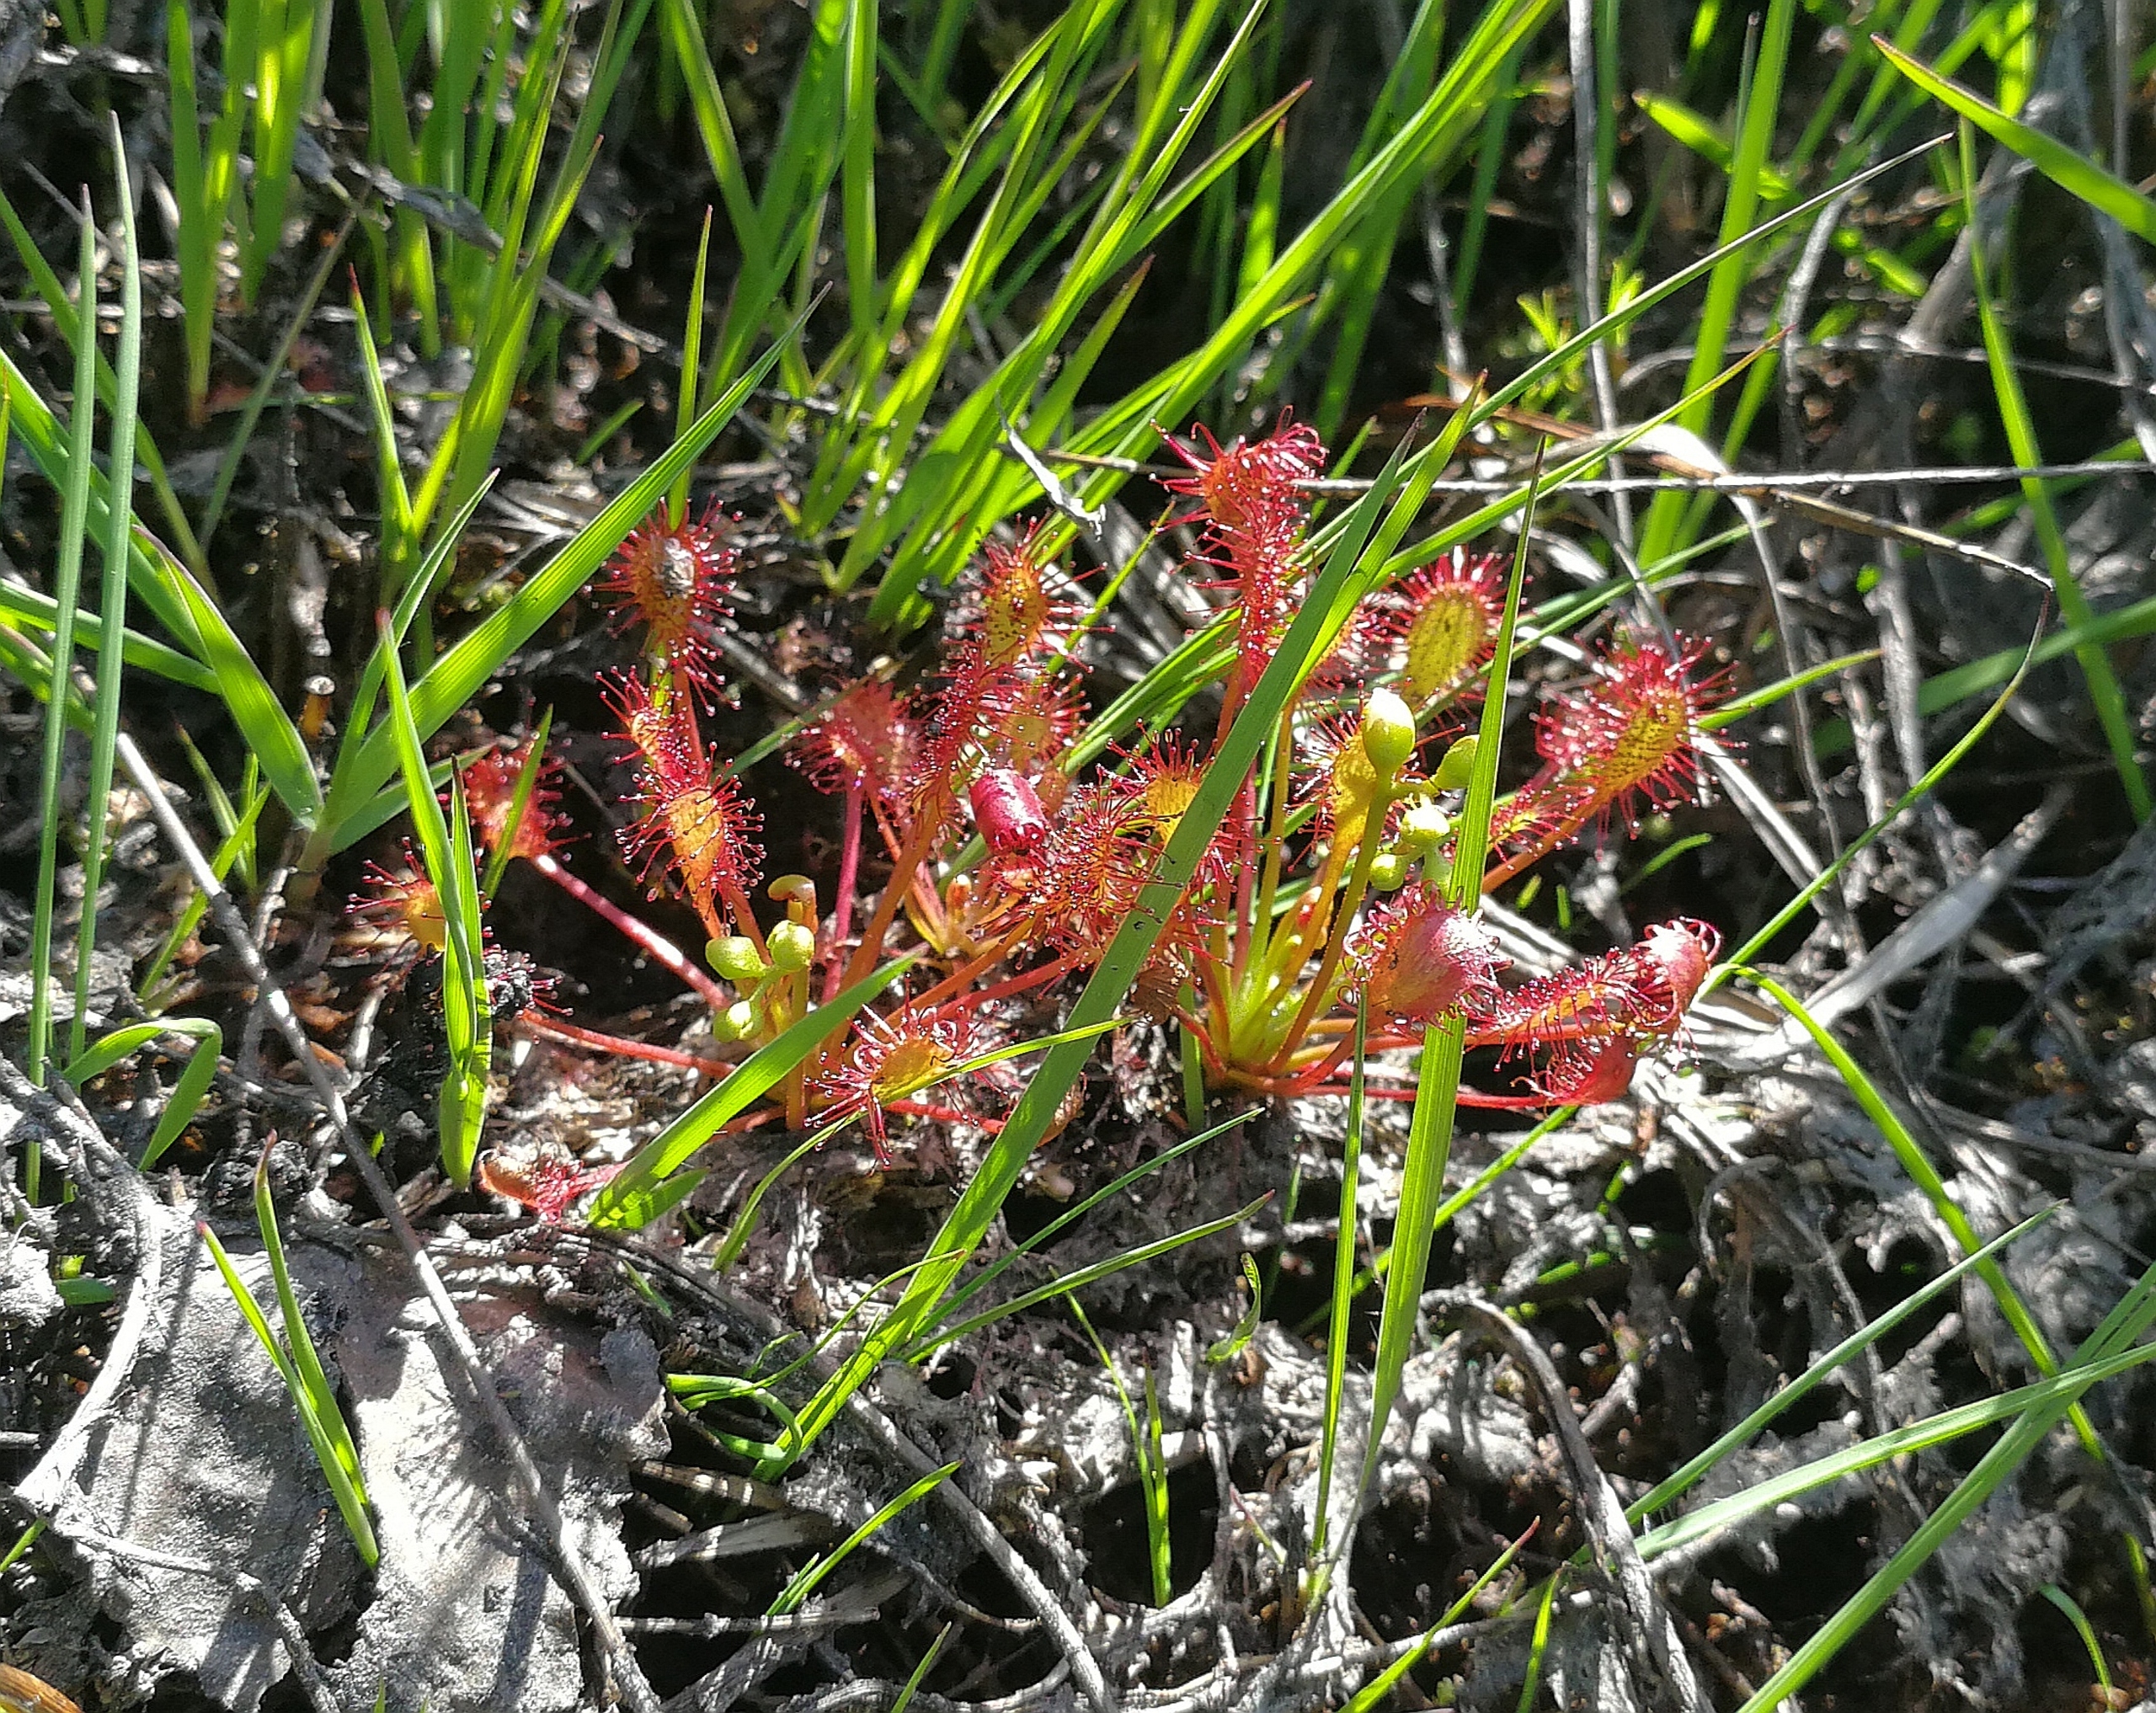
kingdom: Plantae
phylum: Tracheophyta
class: Magnoliopsida
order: Caryophyllales
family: Droseraceae
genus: Drosera
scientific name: Drosera intermedia
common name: Liden soldug
